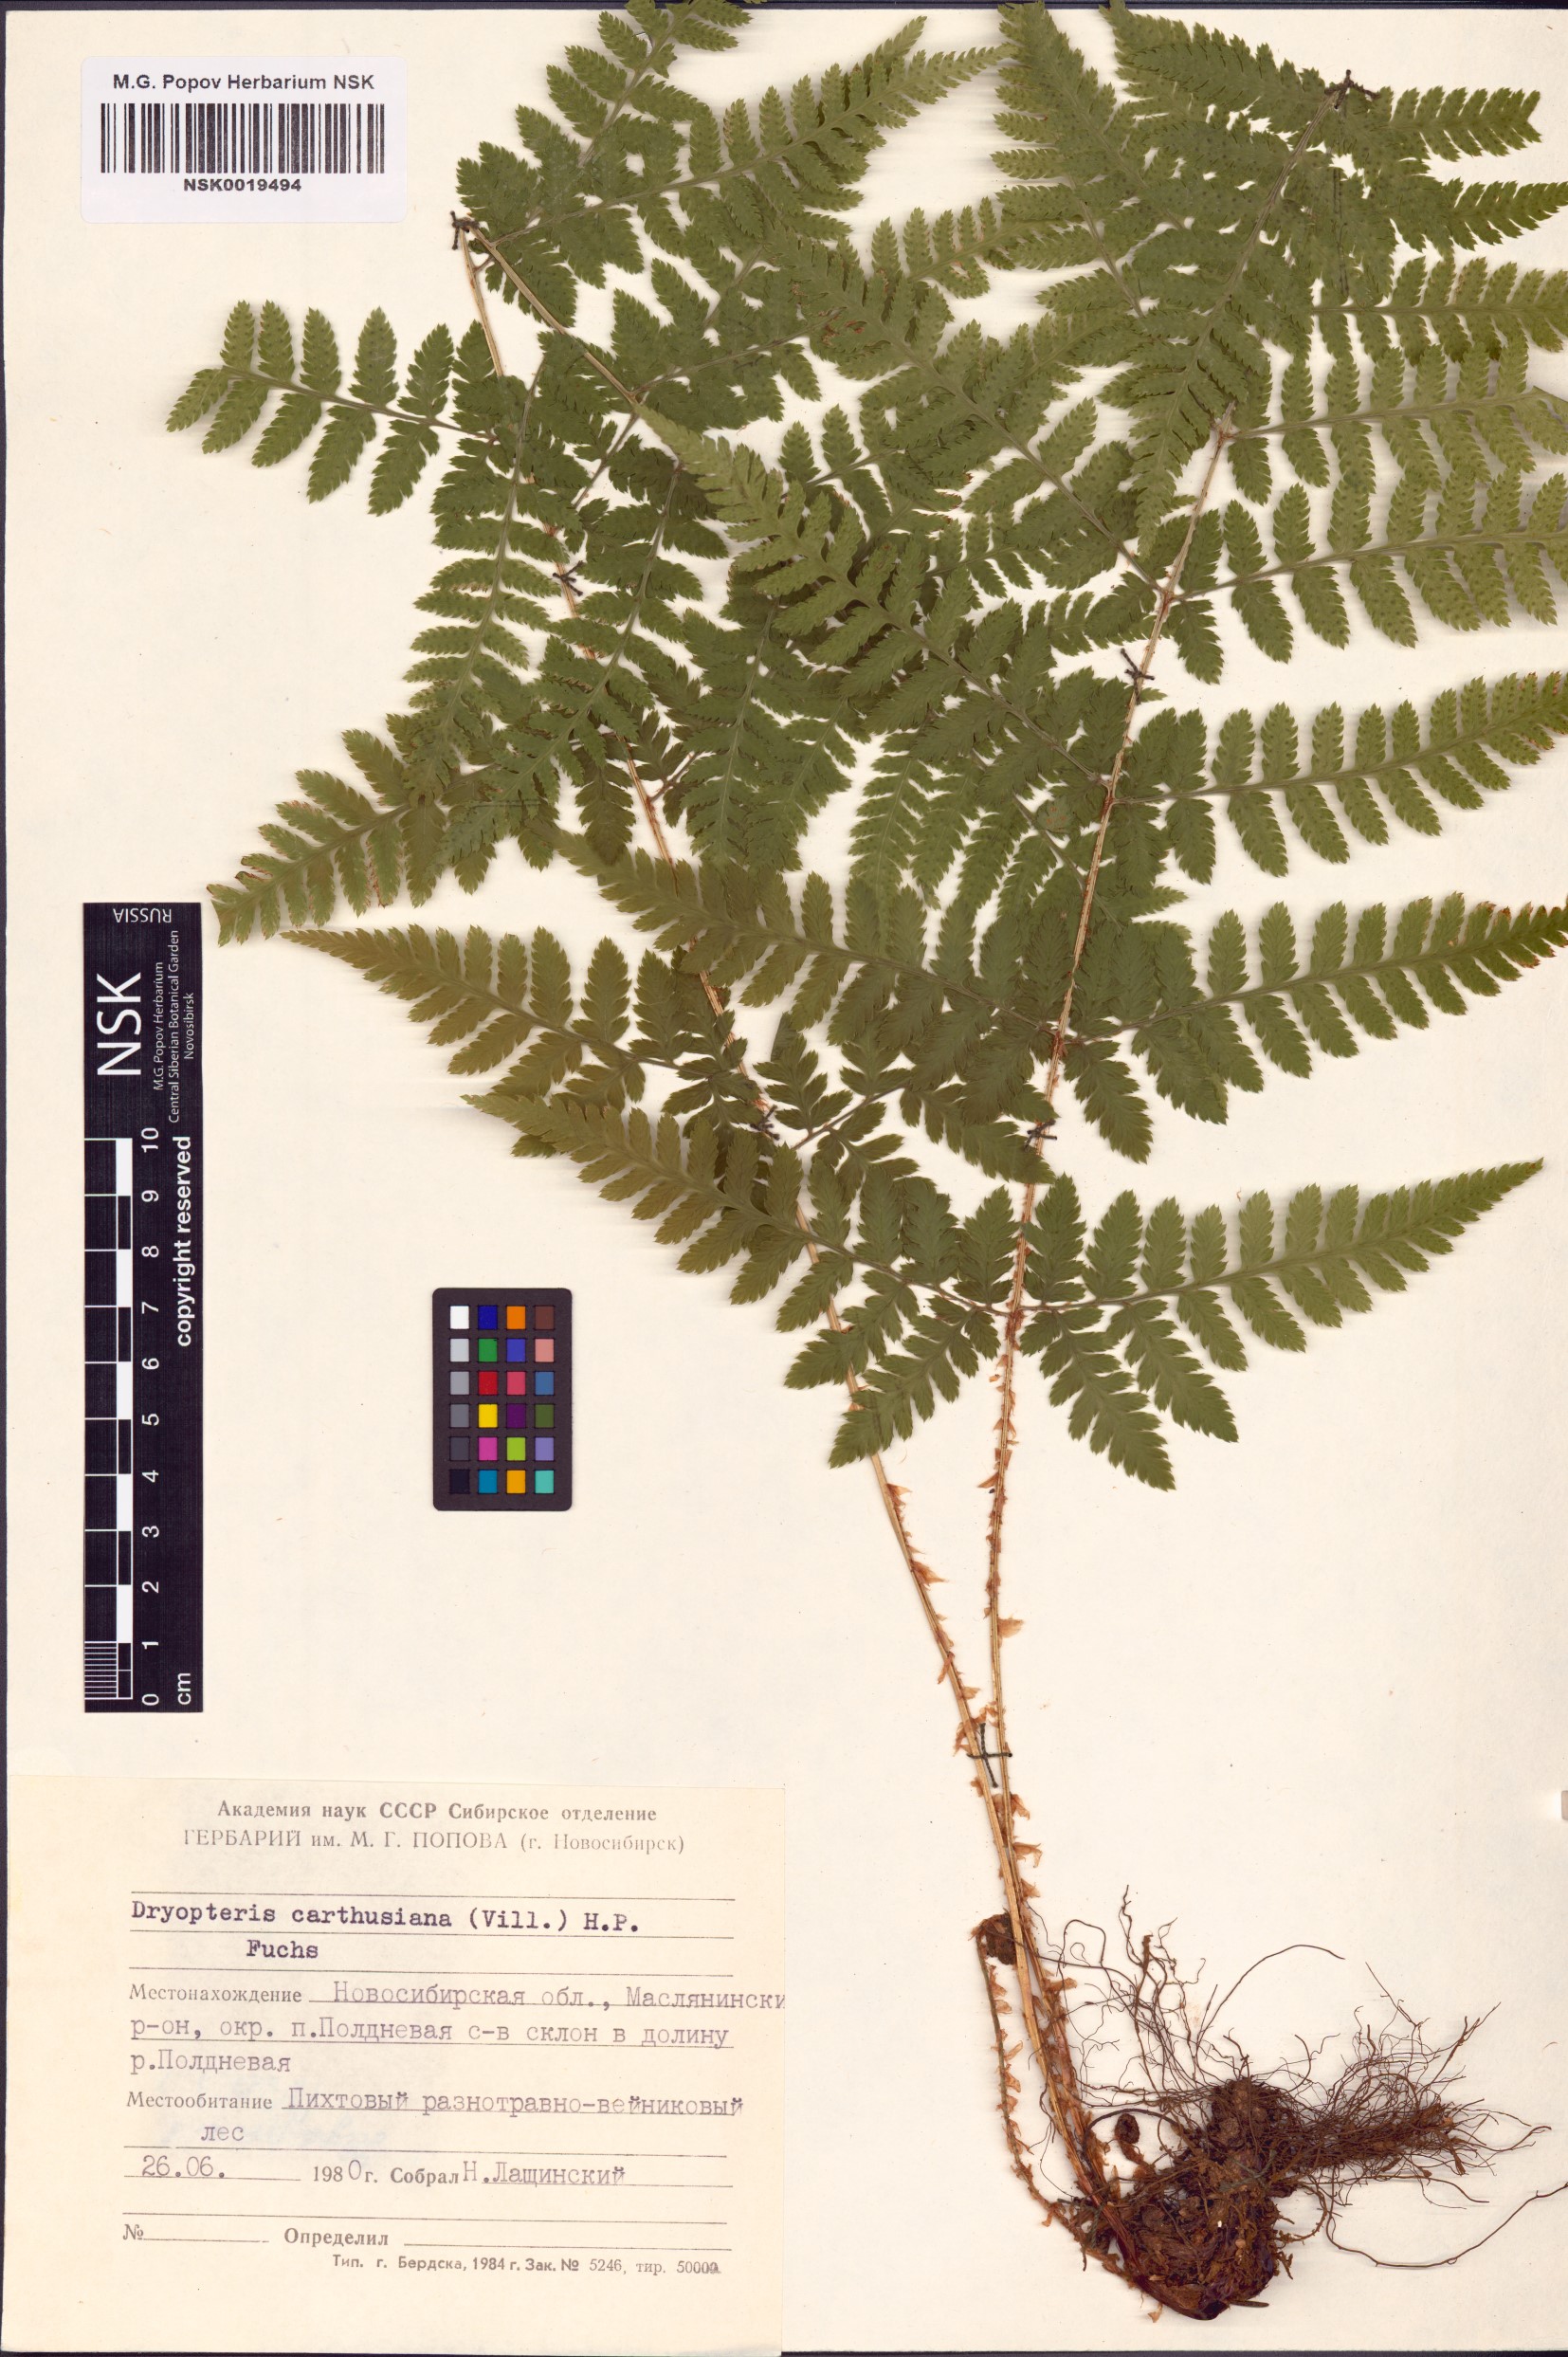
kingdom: Plantae
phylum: Tracheophyta
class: Polypodiopsida
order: Polypodiales
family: Dryopteridaceae
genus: Dryopteris
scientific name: Dryopteris carthusiana
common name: Narrow buckler-fern
